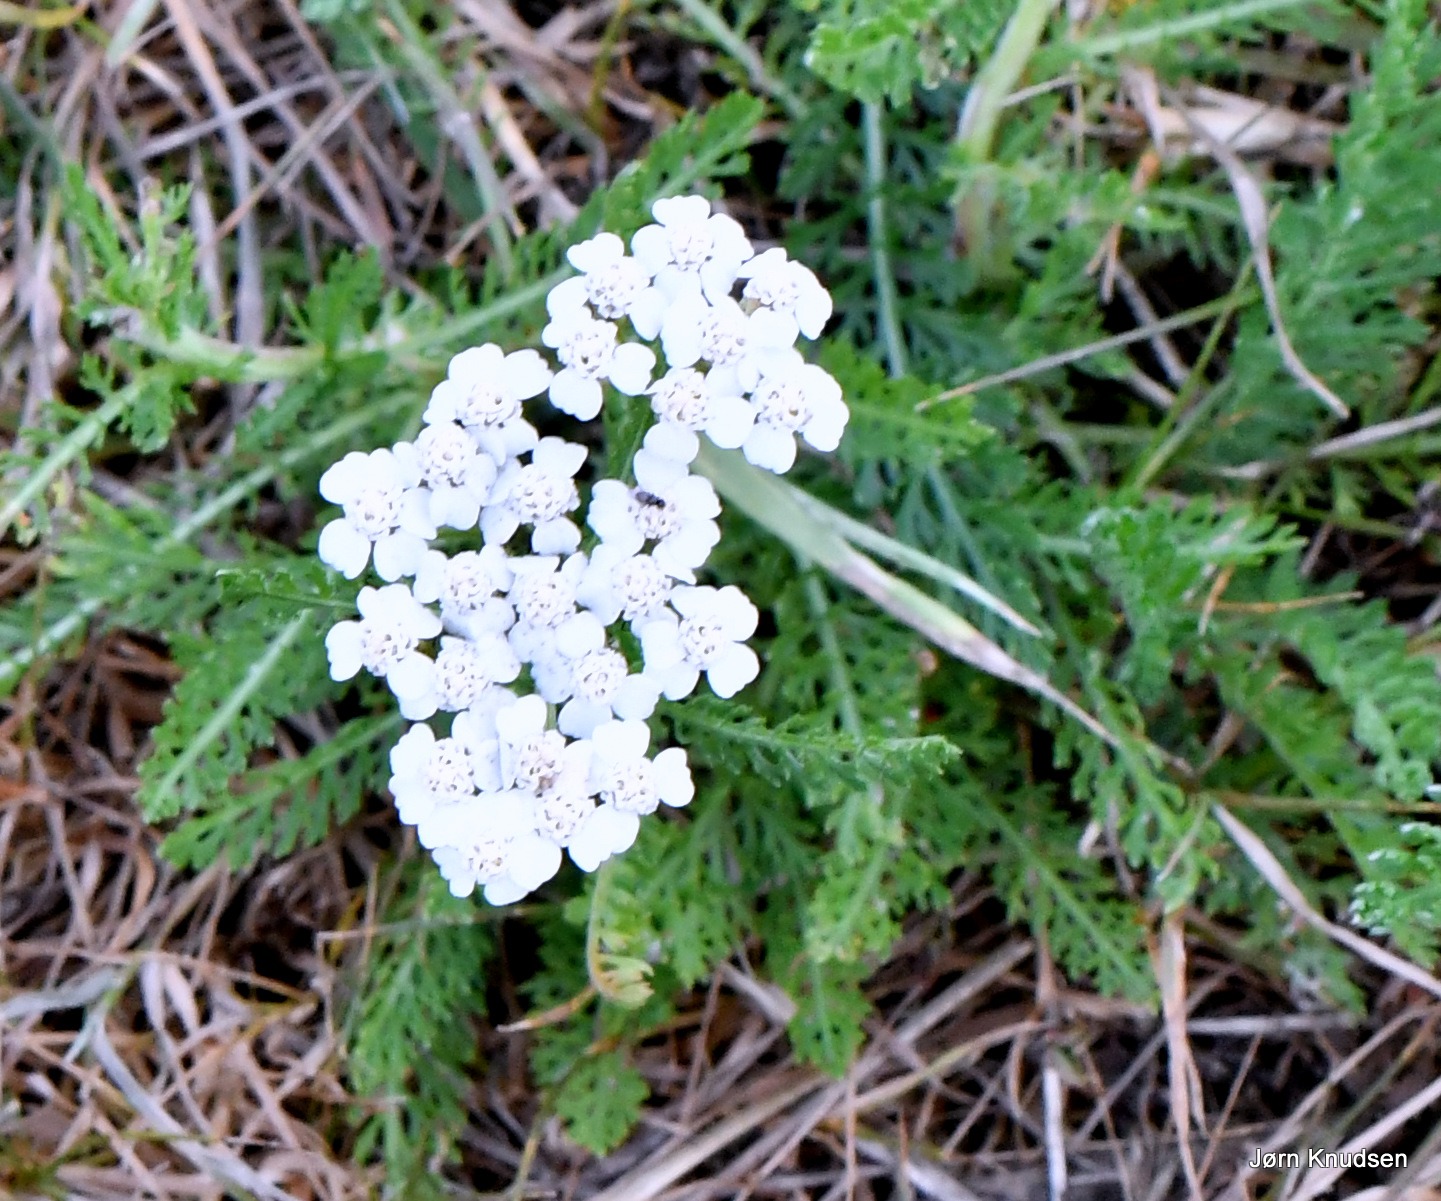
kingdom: Plantae
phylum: Tracheophyta
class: Magnoliopsida
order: Asterales
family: Asteraceae
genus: Achillea
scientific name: Achillea millefolium
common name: Almindelig røllike
